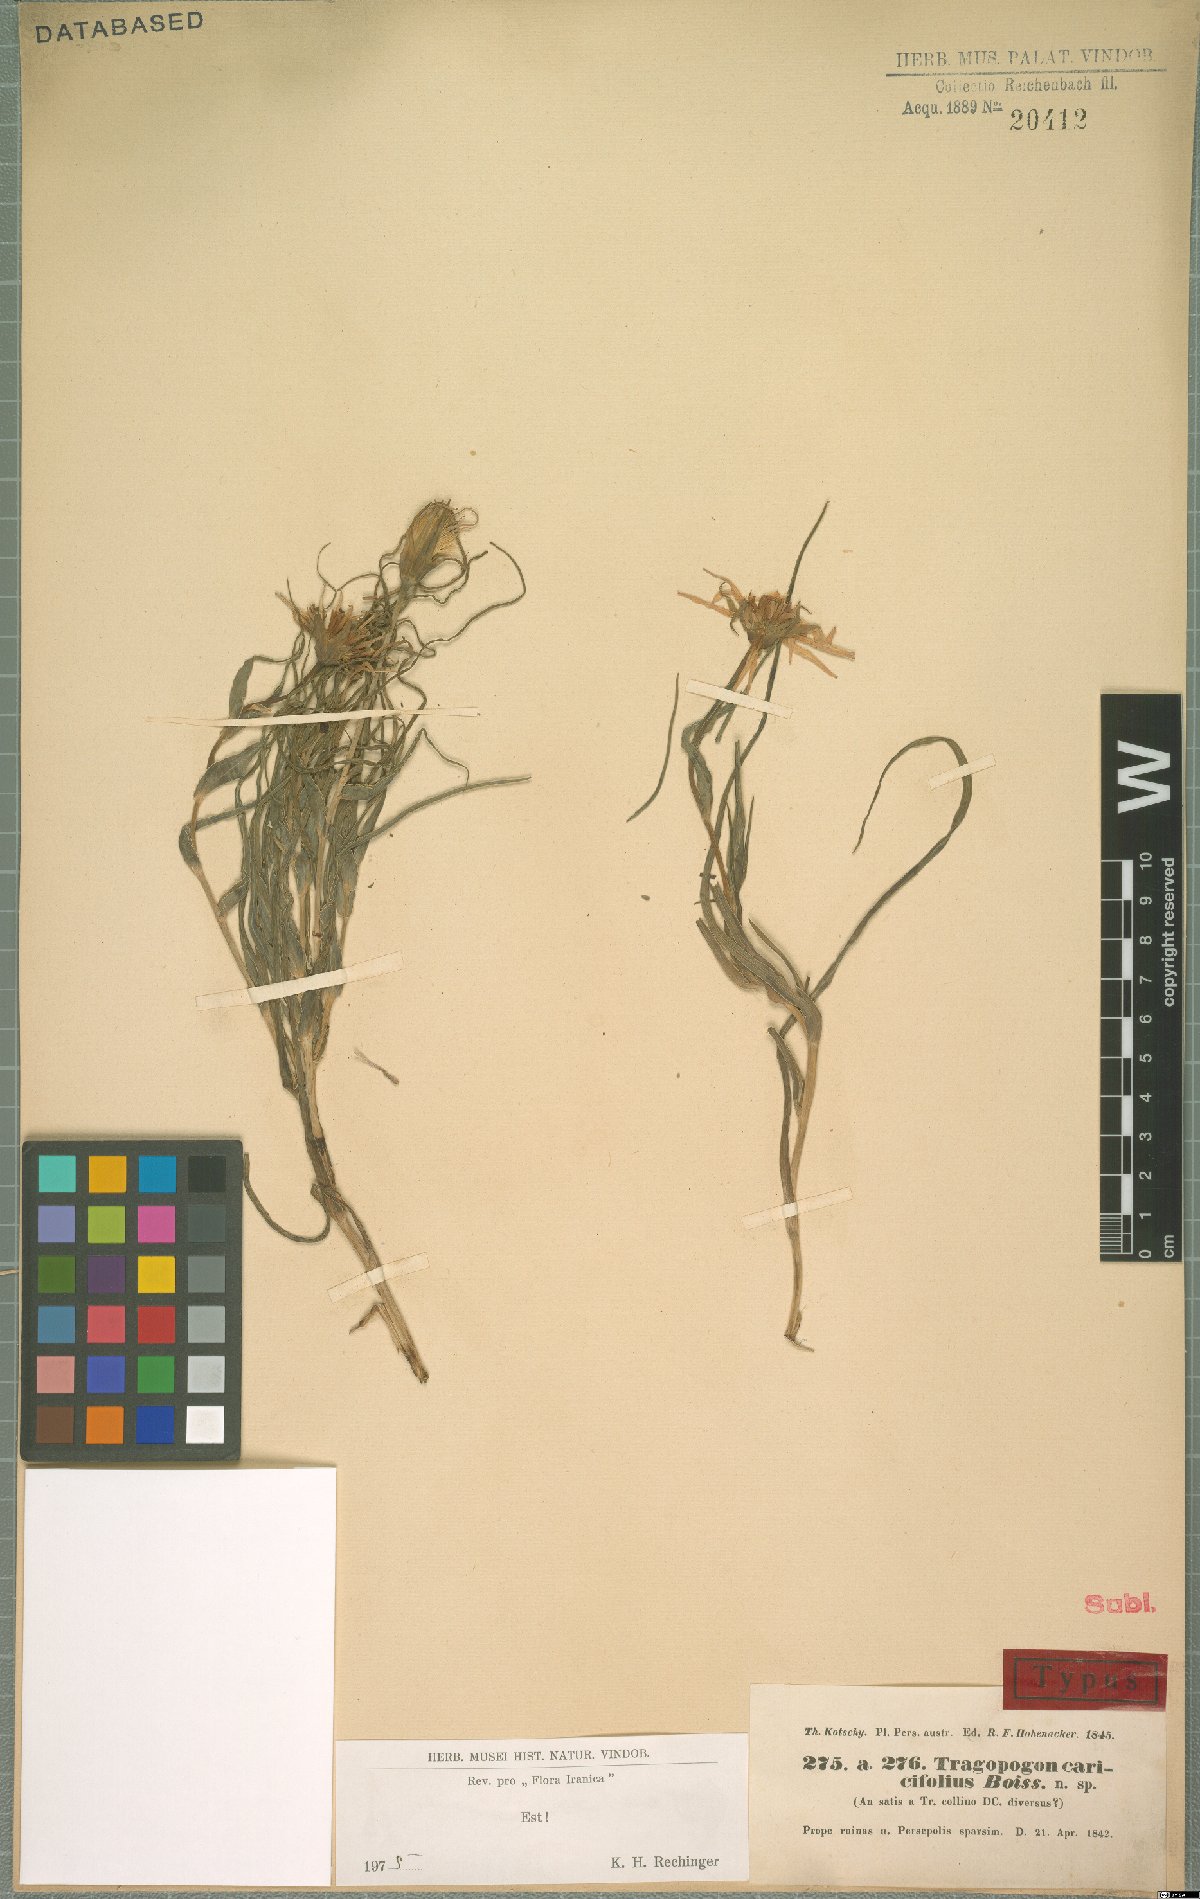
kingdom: Plantae
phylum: Tracheophyta
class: Magnoliopsida
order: Asterales
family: Asteraceae
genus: Tragopogon
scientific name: Tragopogon caricifolius
